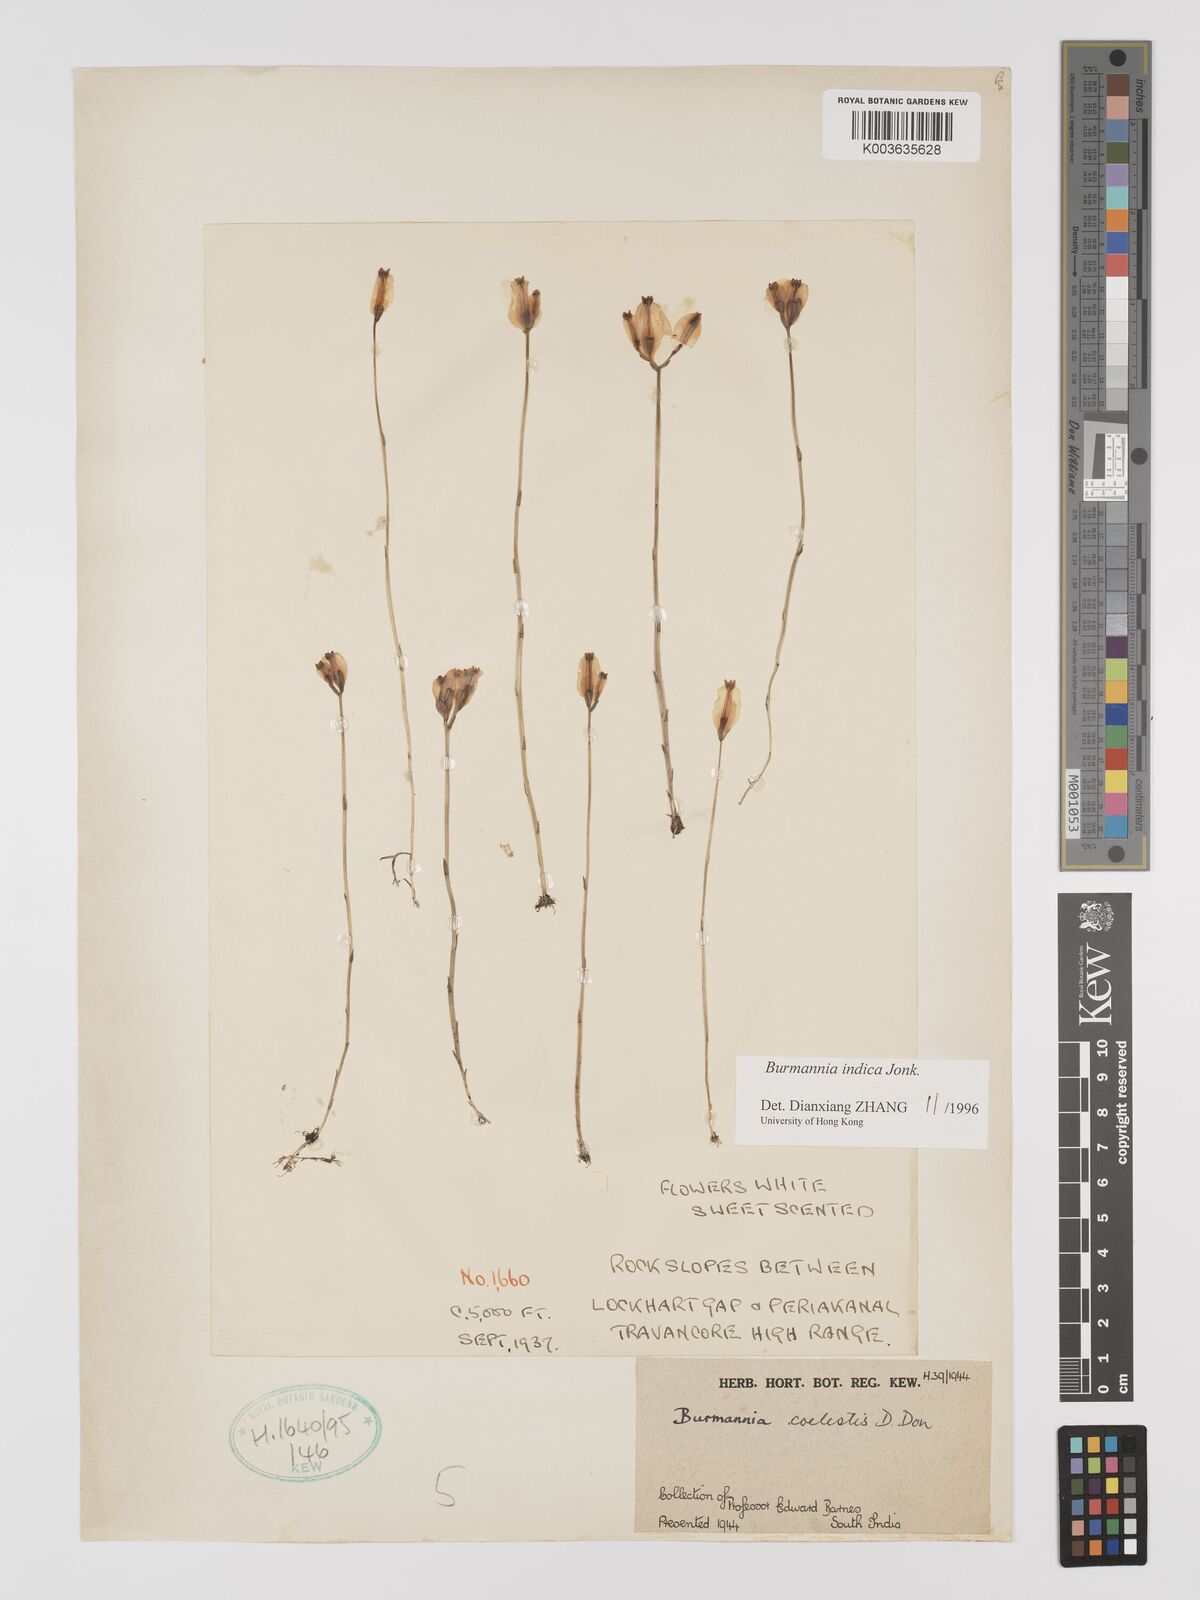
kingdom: Plantae
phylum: Tracheophyta
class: Liliopsida
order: Dioscoreales
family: Burmanniaceae
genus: Burmannia
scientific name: Burmannia indica
